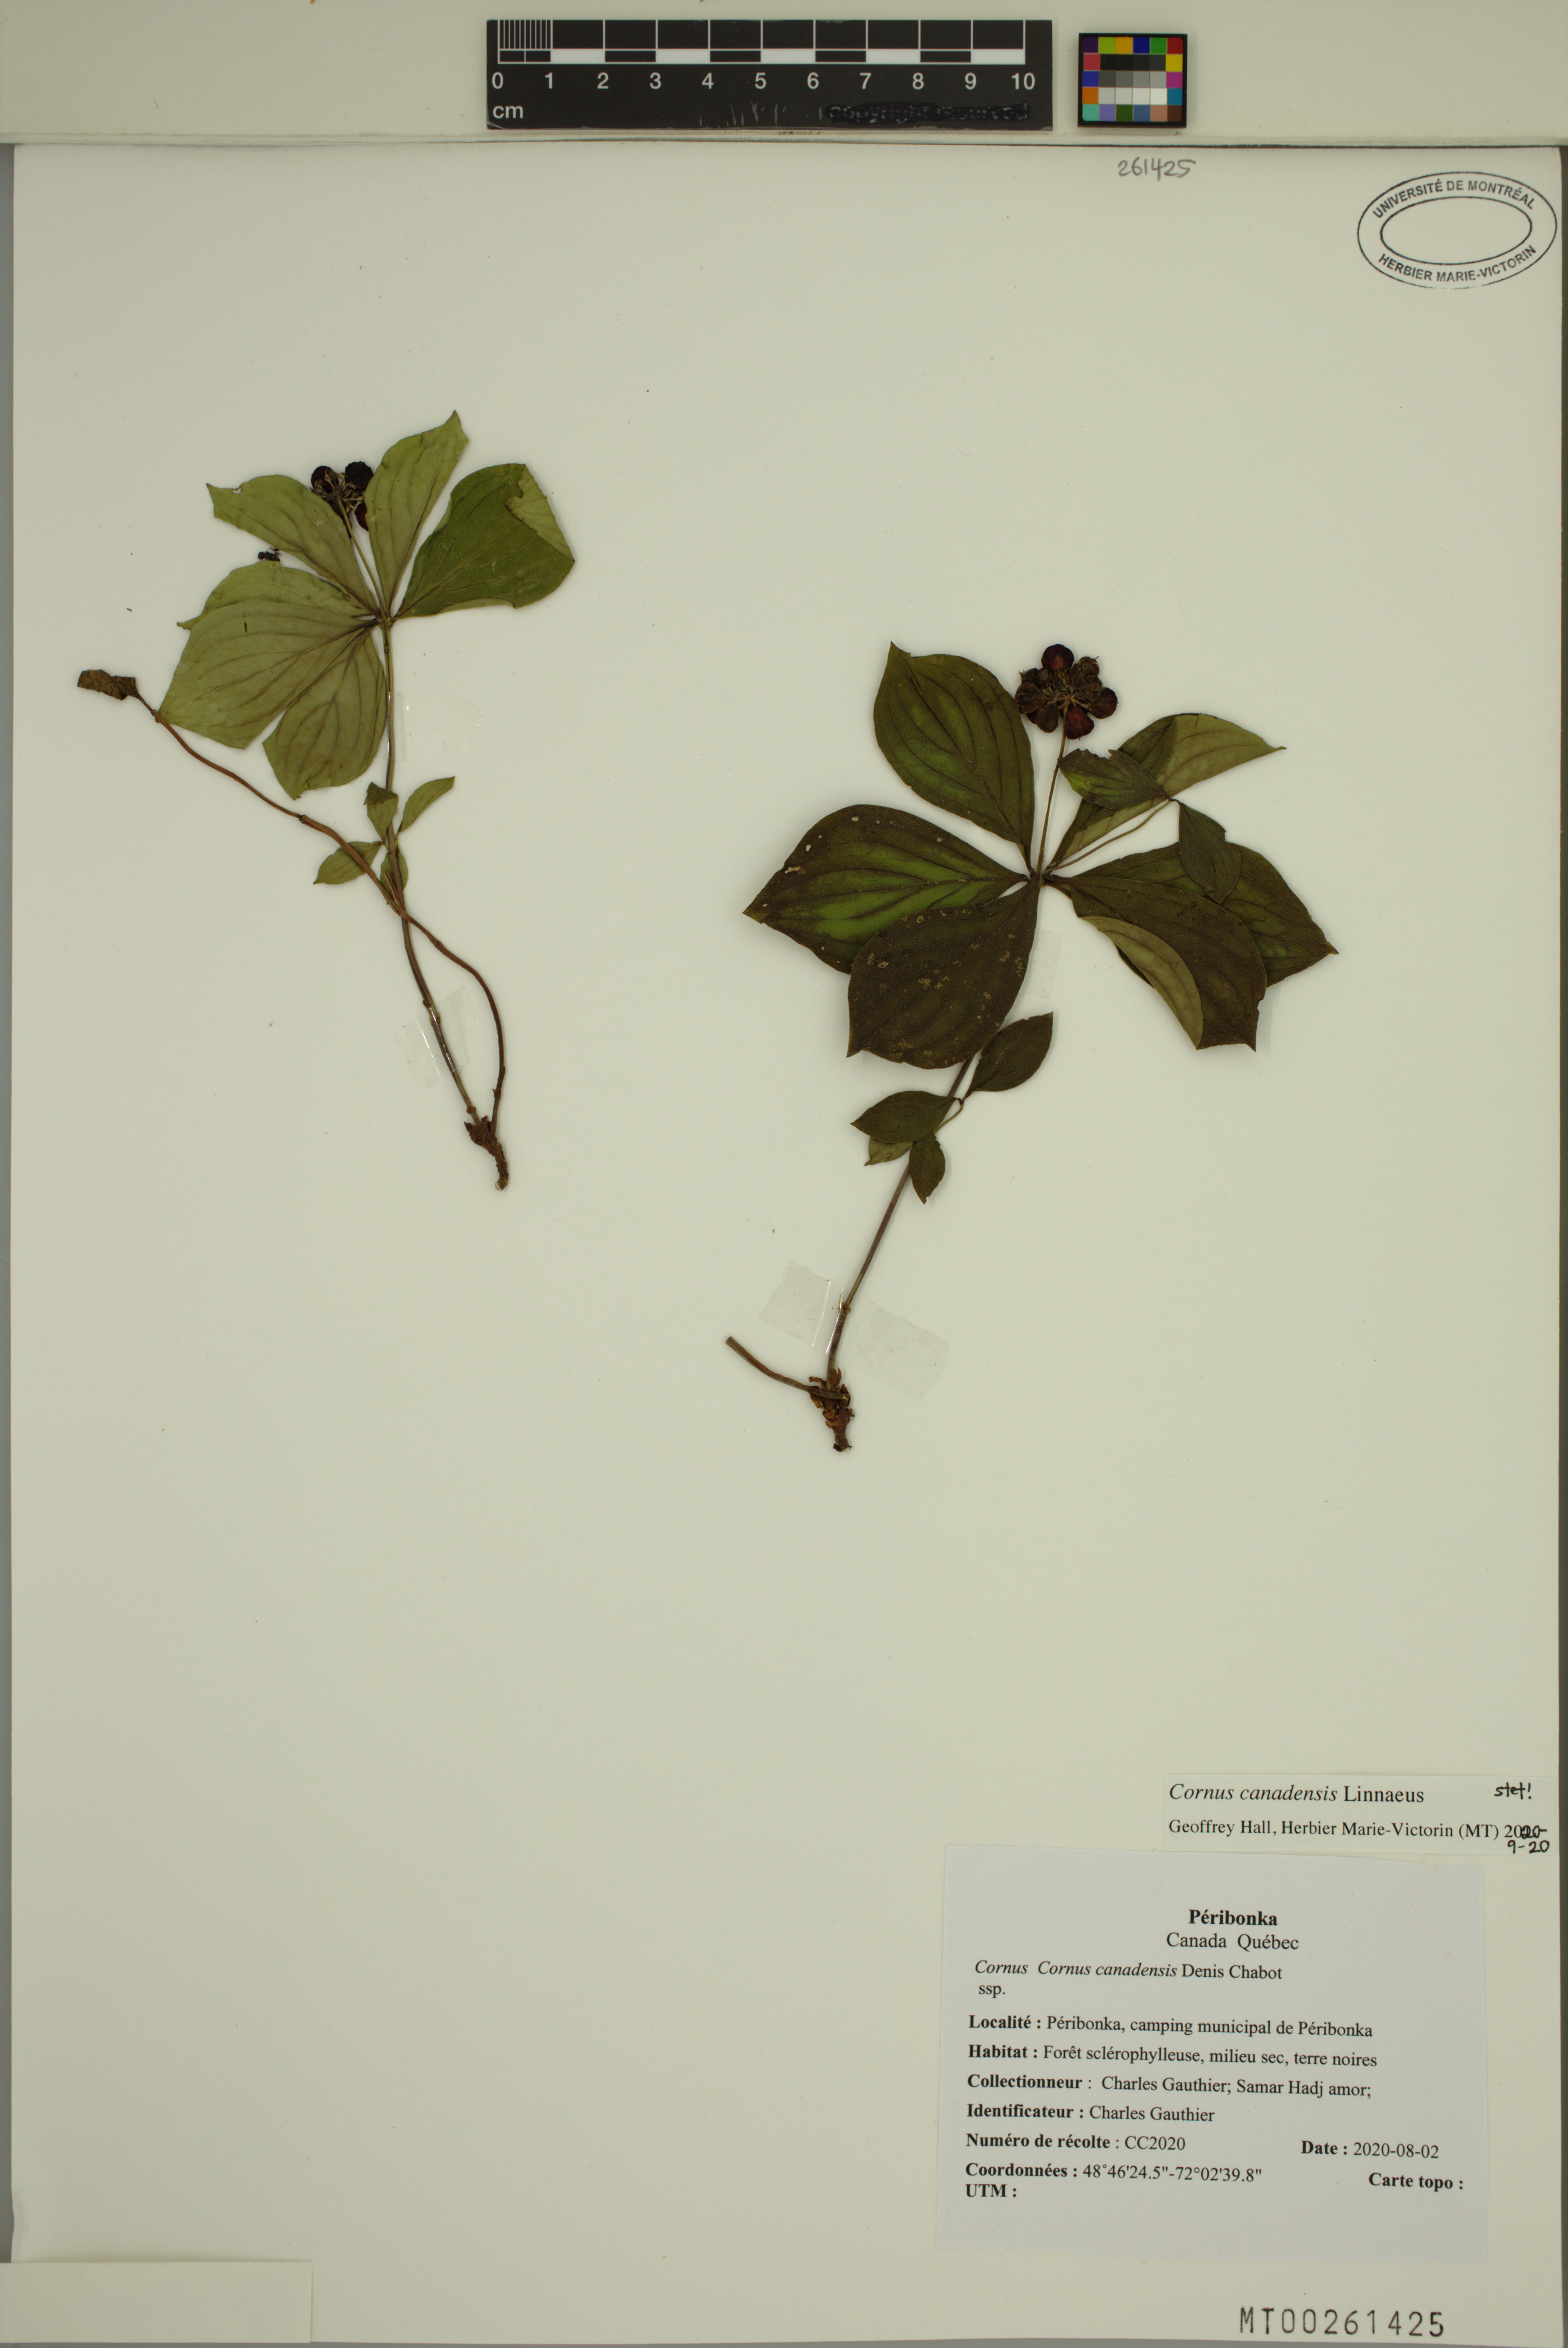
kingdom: Plantae
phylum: Tracheophyta
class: Magnoliopsida
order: Cornales
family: Cornaceae
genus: Cornus
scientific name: Cornus canadensis
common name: Creeping dogwood
